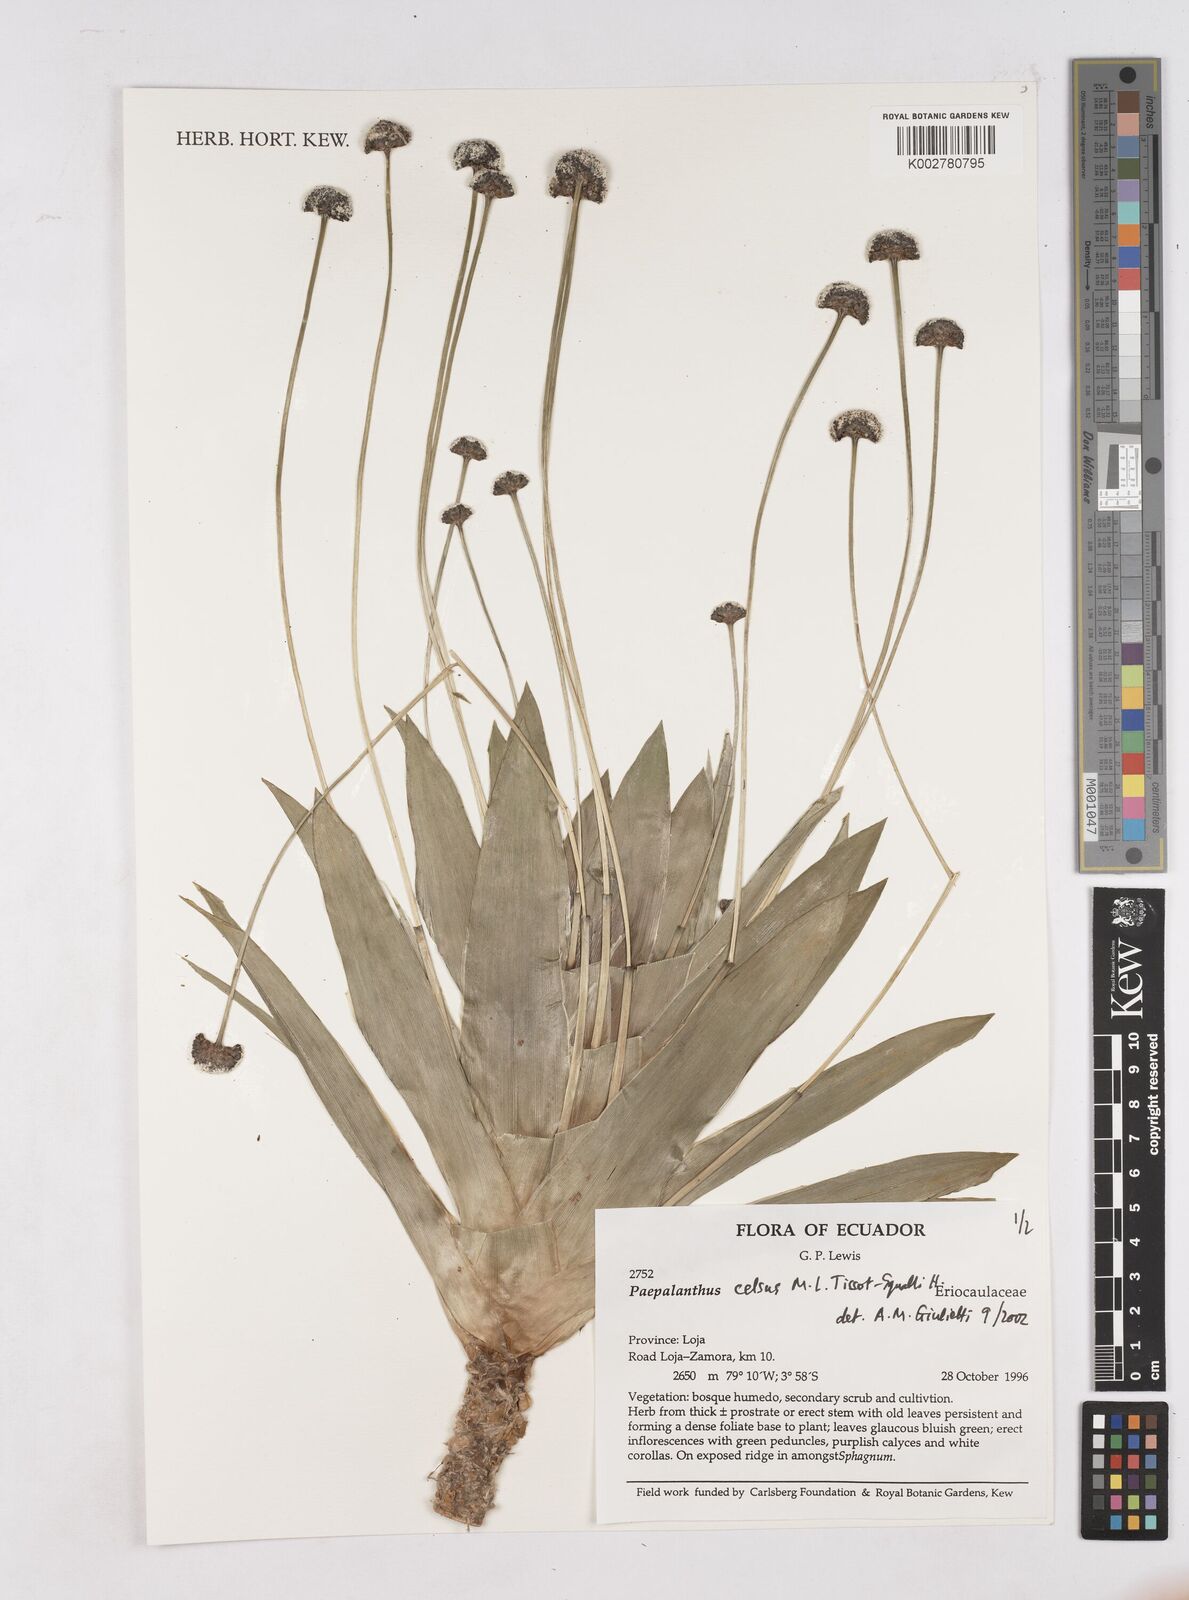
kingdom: Plantae
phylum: Tracheophyta
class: Liliopsida
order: Poales
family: Eriocaulaceae
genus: Paepalanthus
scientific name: Paepalanthus celsus
